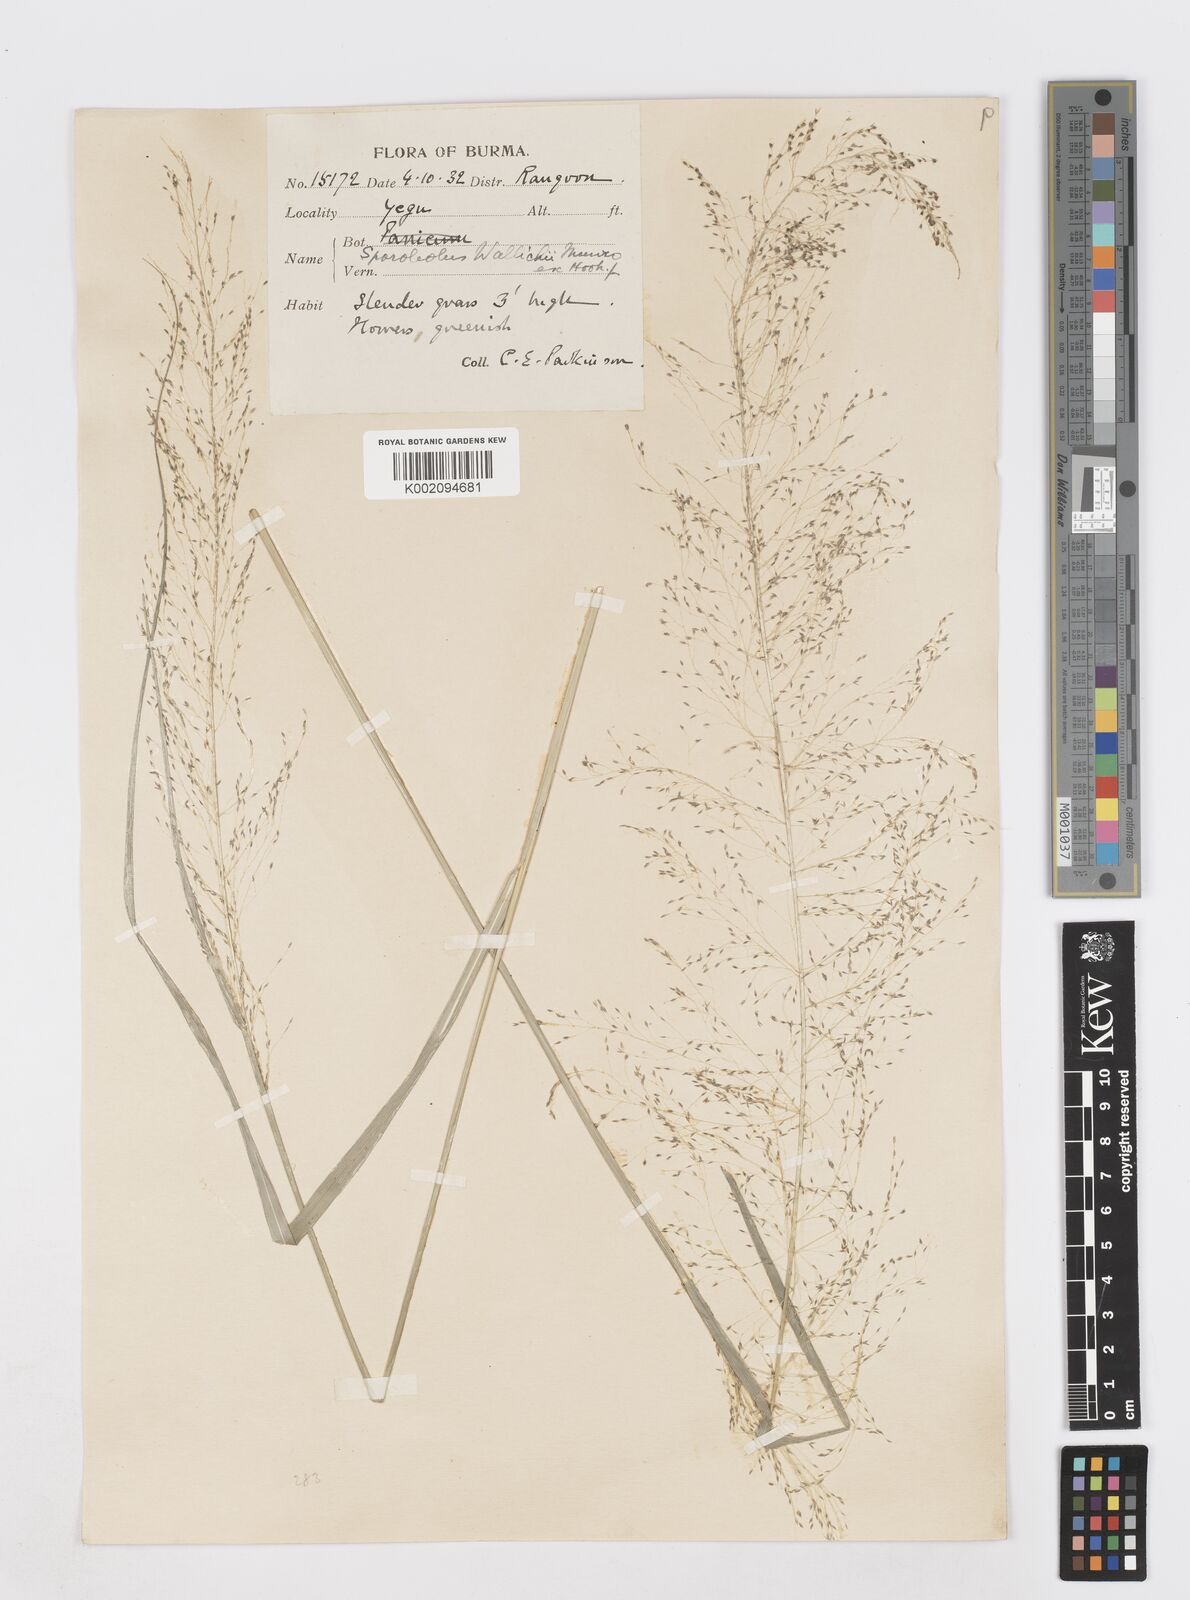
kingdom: Plantae
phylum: Tracheophyta
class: Liliopsida
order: Poales
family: Poaceae
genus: Sporobolus
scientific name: Sporobolus wallichii
